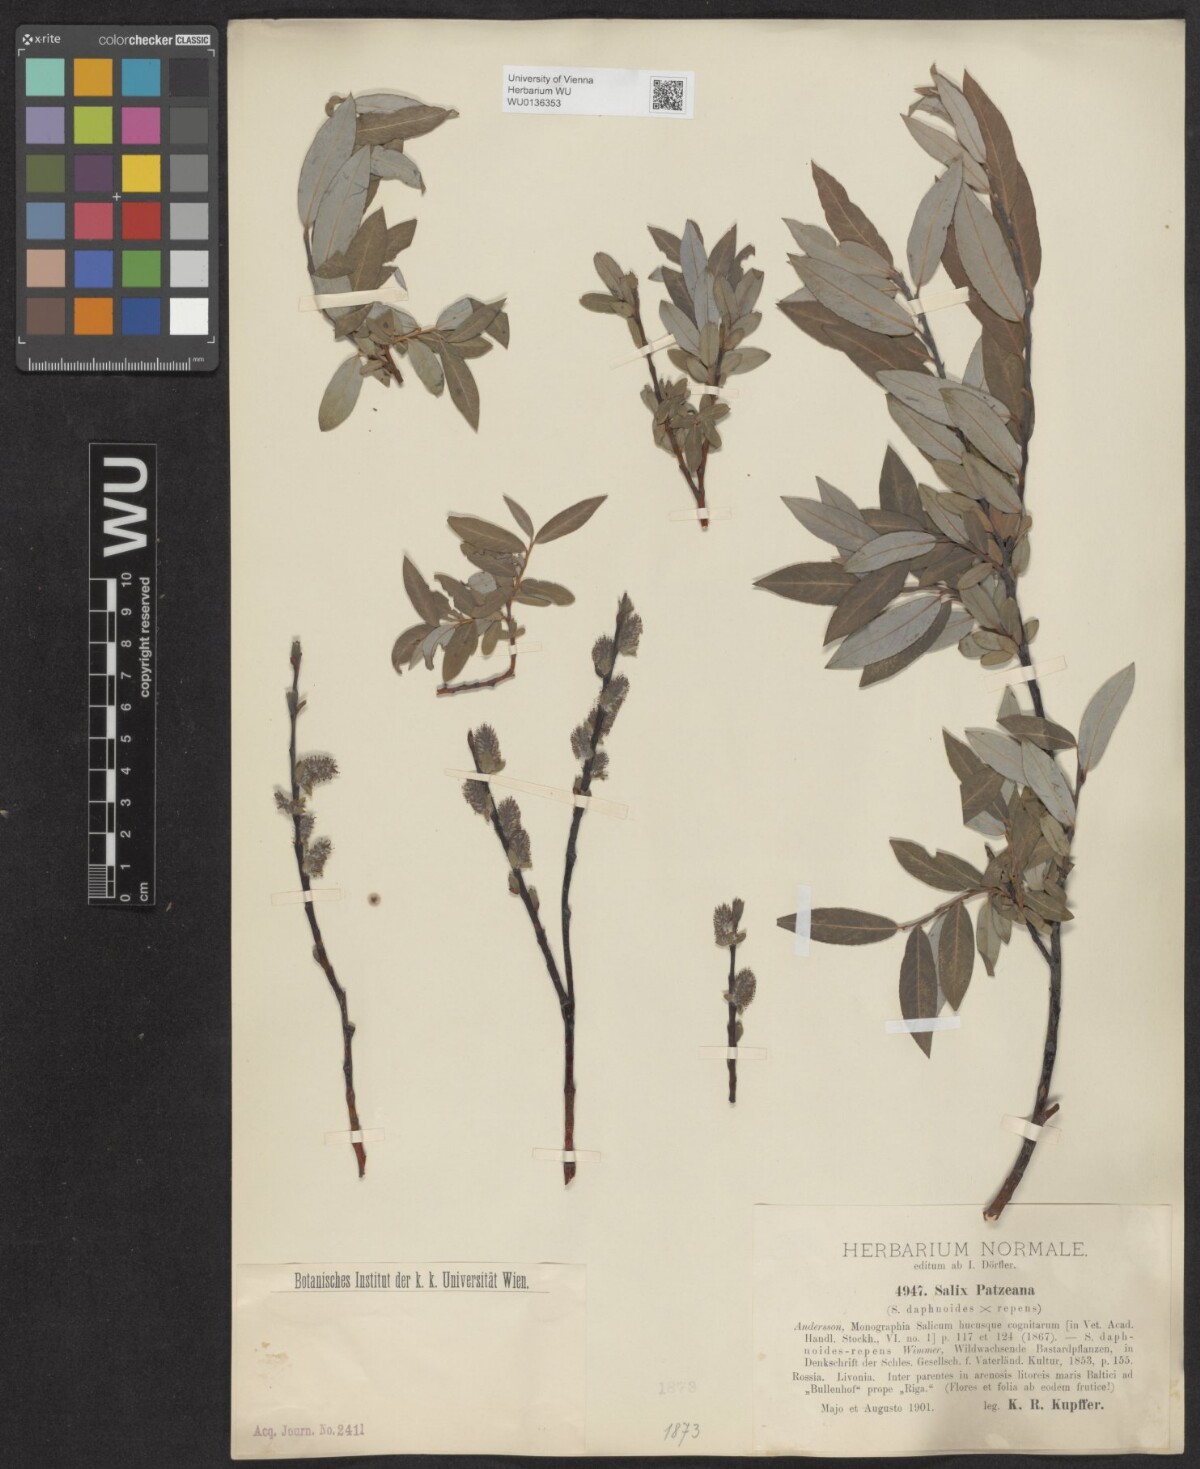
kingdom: Plantae
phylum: Tracheophyta
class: Magnoliopsida
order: Malpighiales
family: Salicaceae
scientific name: Salicaceae
